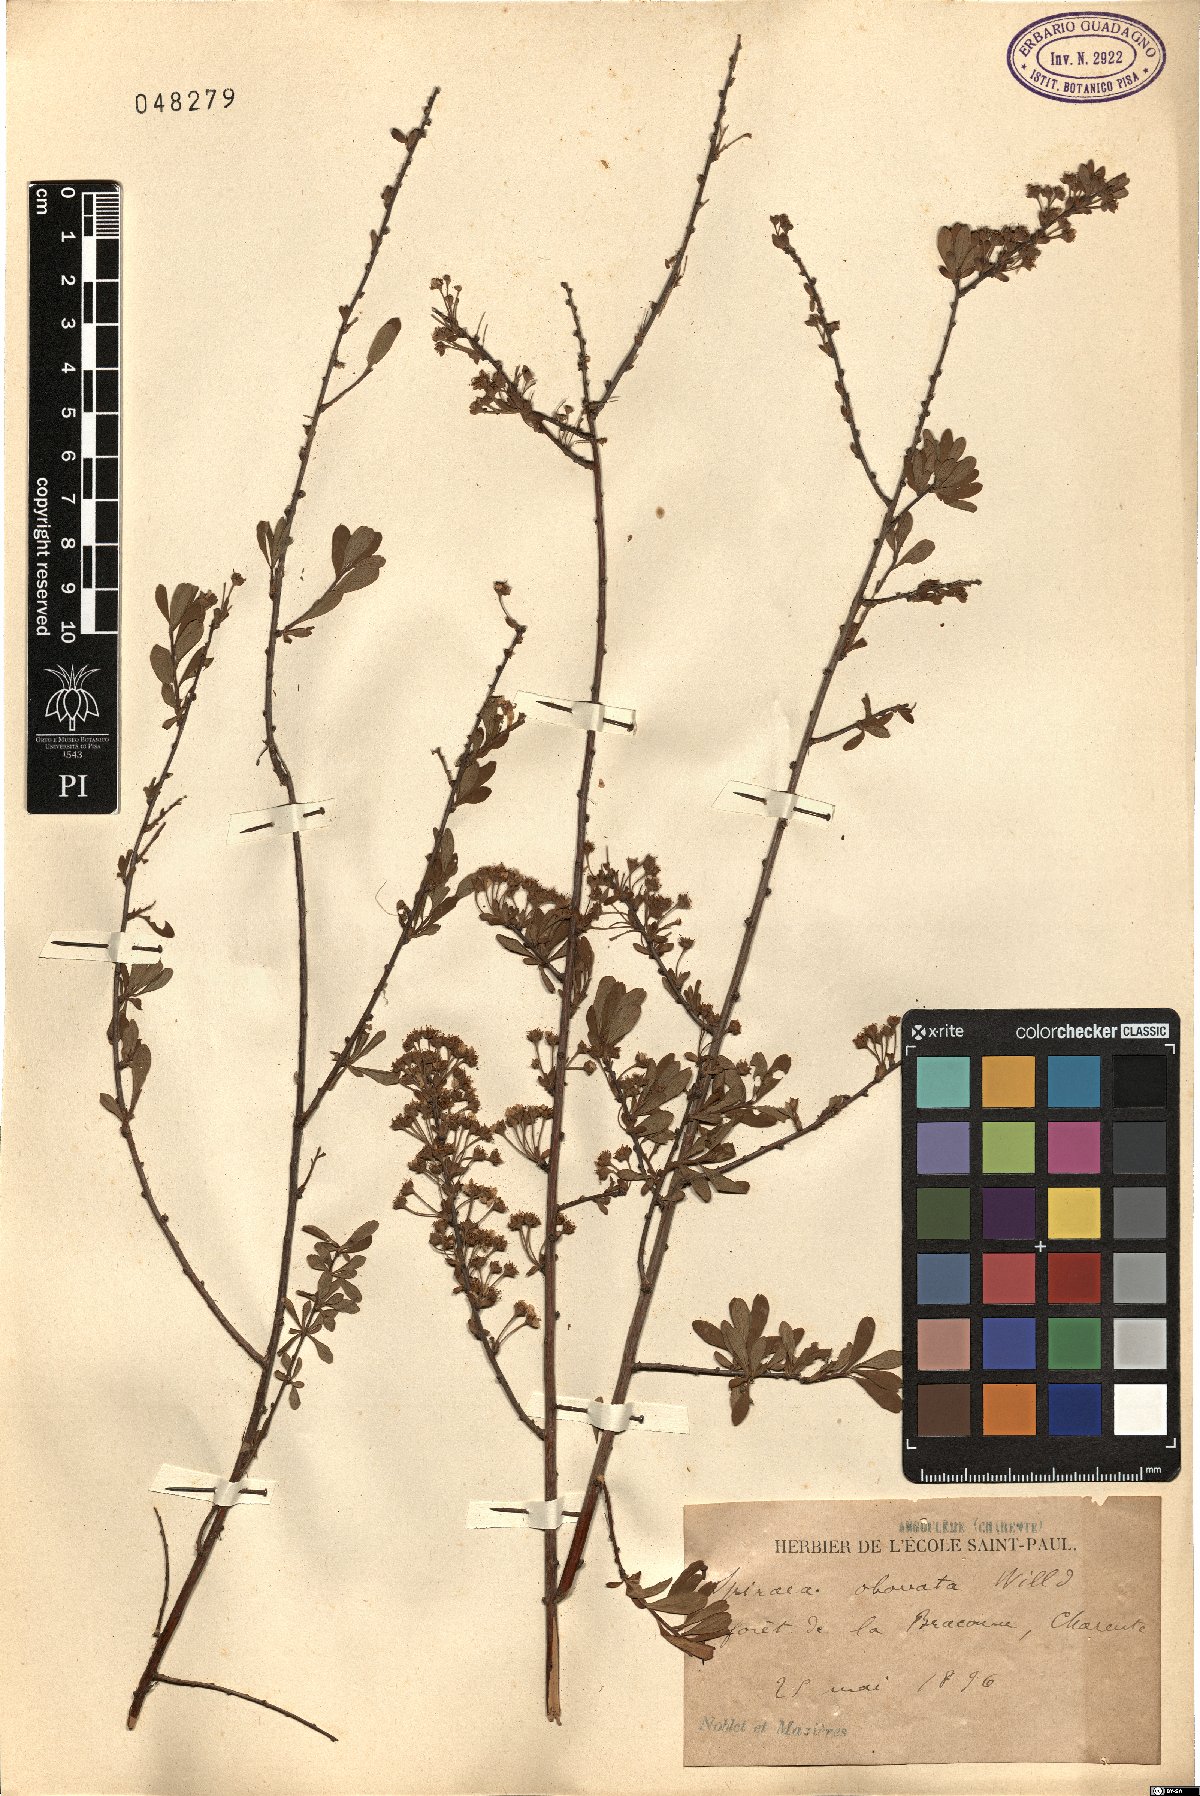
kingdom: Plantae
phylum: Tracheophyta
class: Magnoliopsida
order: Rosales
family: Rosaceae
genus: Spiraea
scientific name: Spiraea
